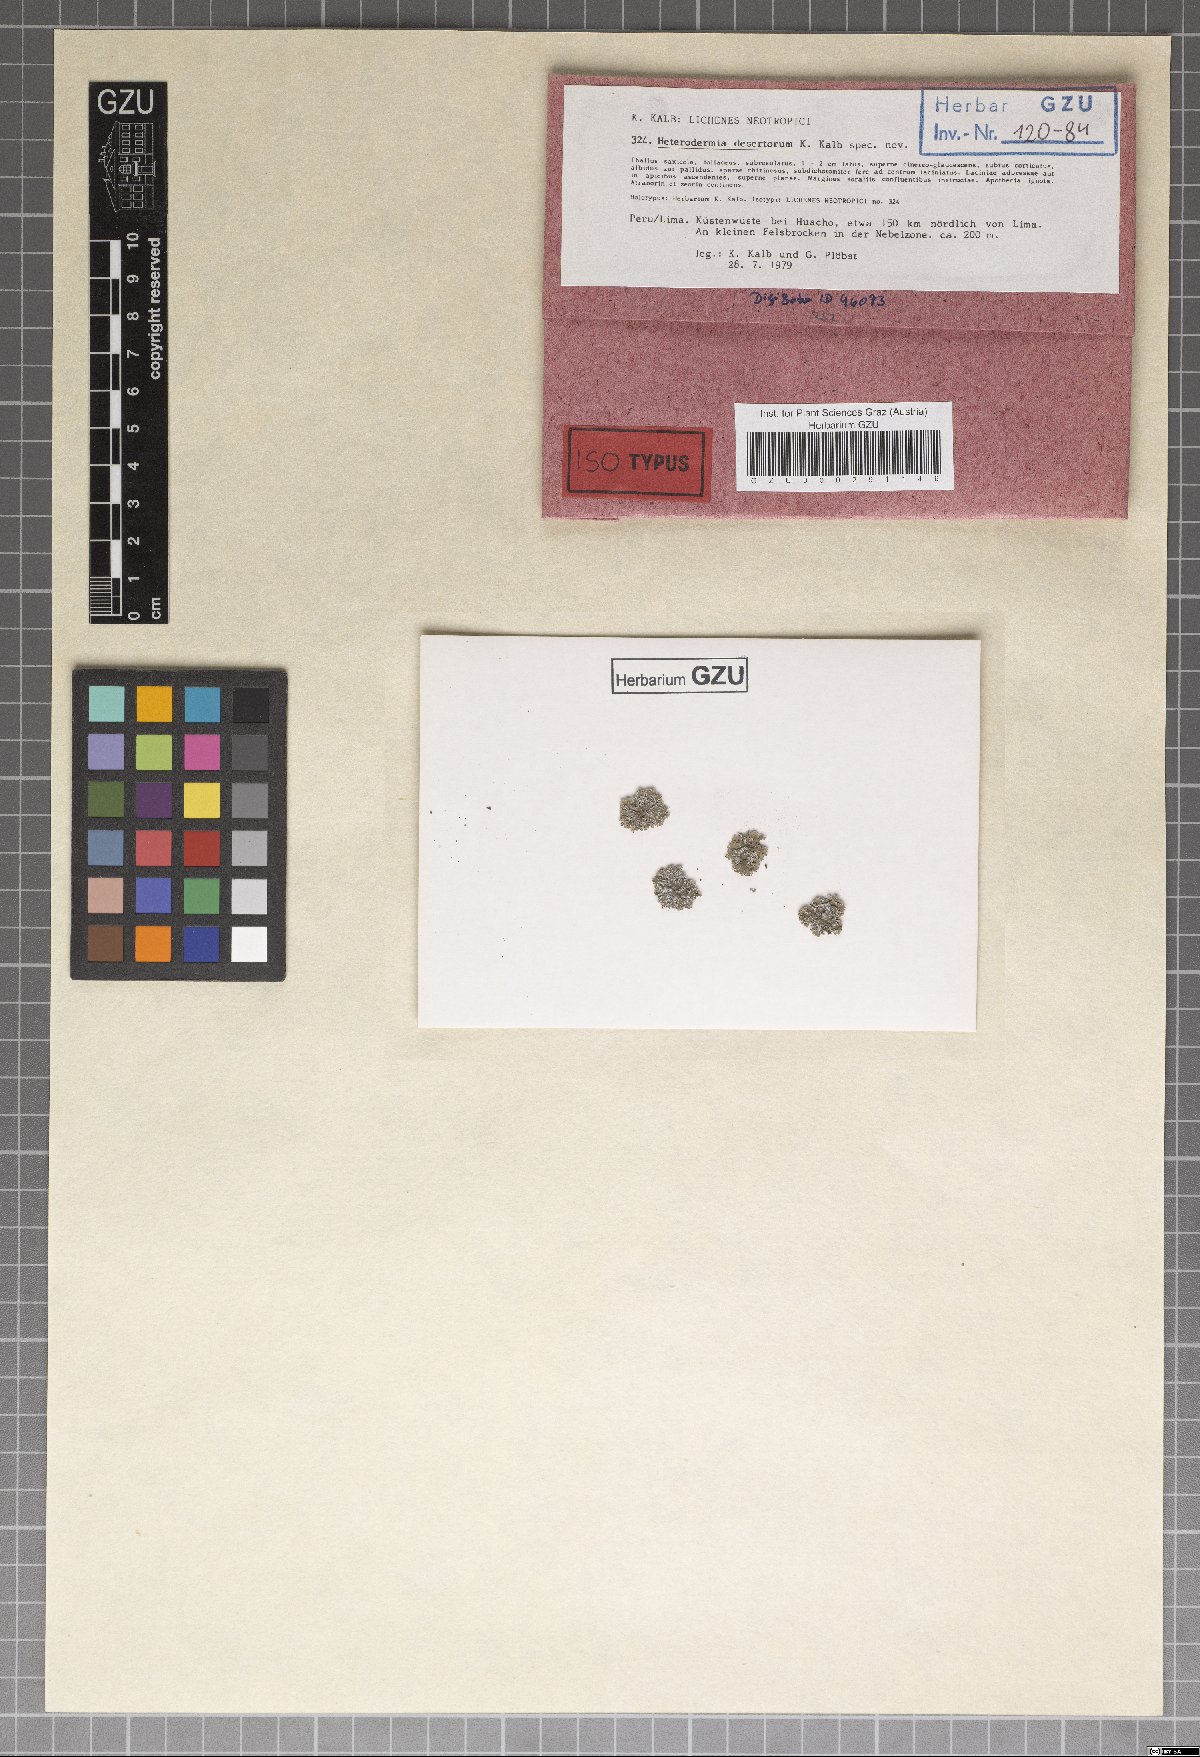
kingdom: Fungi
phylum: Ascomycota
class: Lecanoromycetes
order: Caliciales
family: Physciaceae
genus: Kashiwadia
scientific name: Kashiwadia nubila
